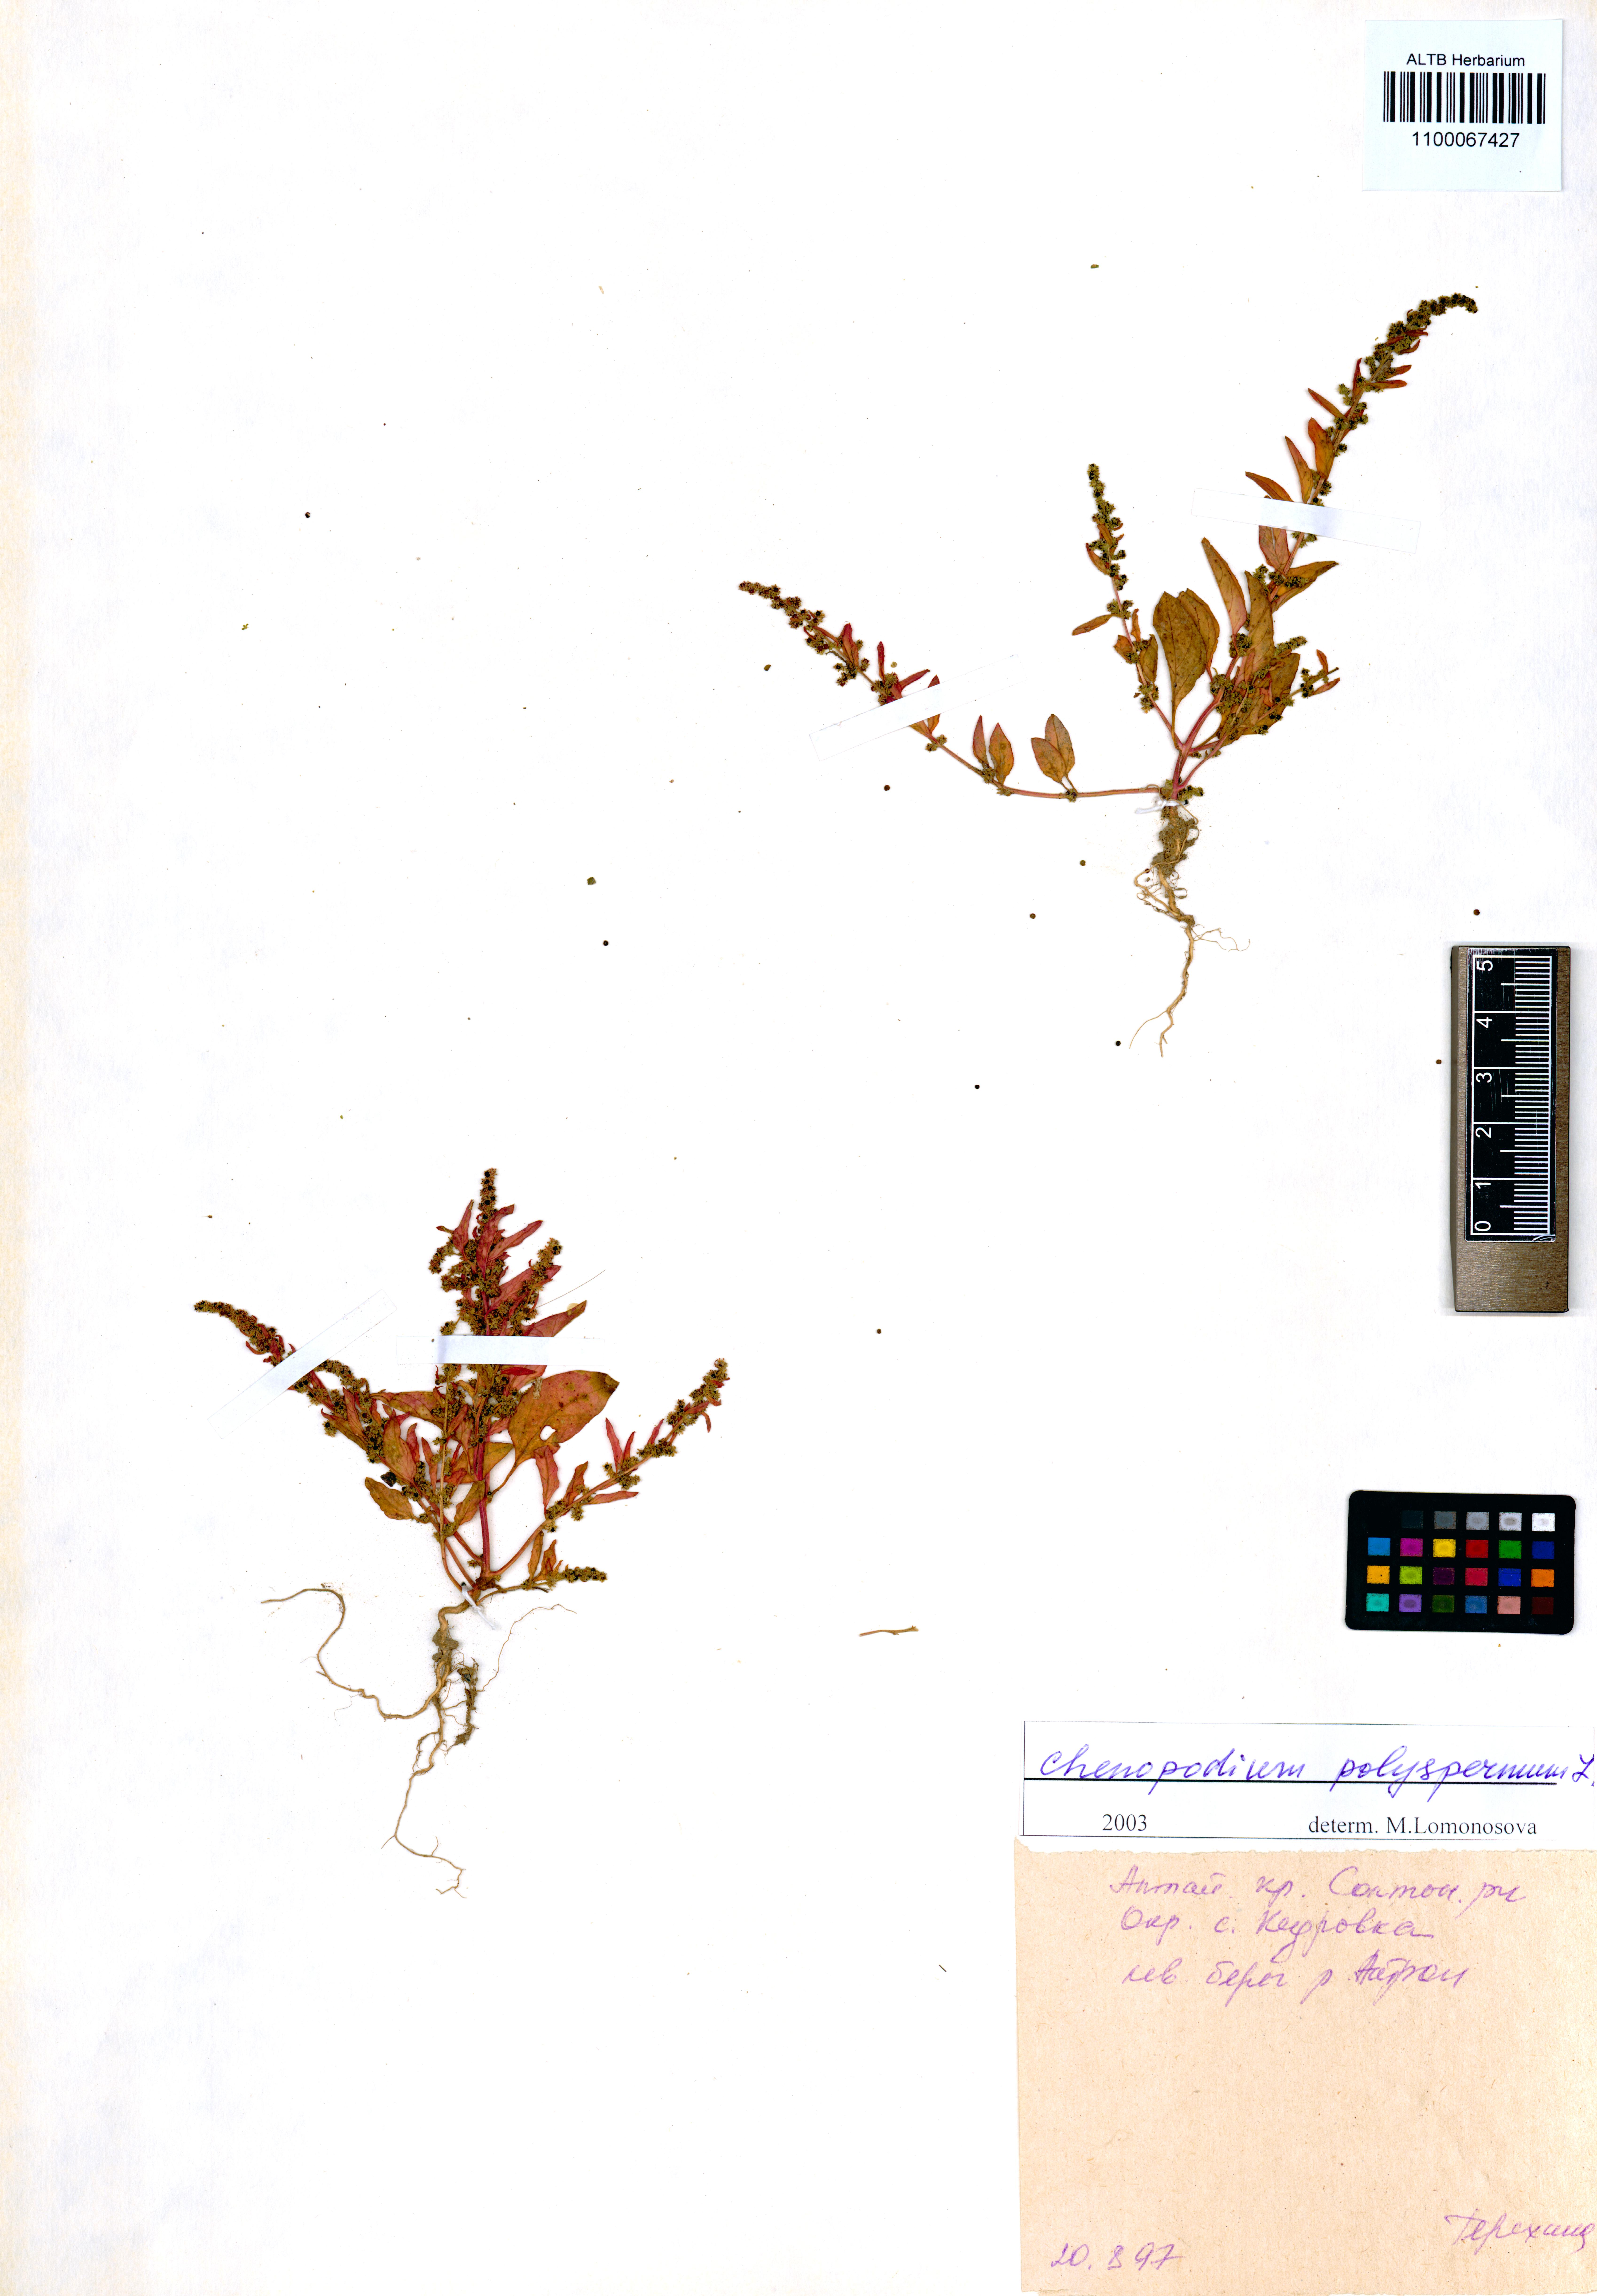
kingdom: Plantae
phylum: Tracheophyta
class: Magnoliopsida
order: Caryophyllales
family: Amaranthaceae
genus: Lipandra
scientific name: Lipandra polysperma
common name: Many-seed goosefoot
